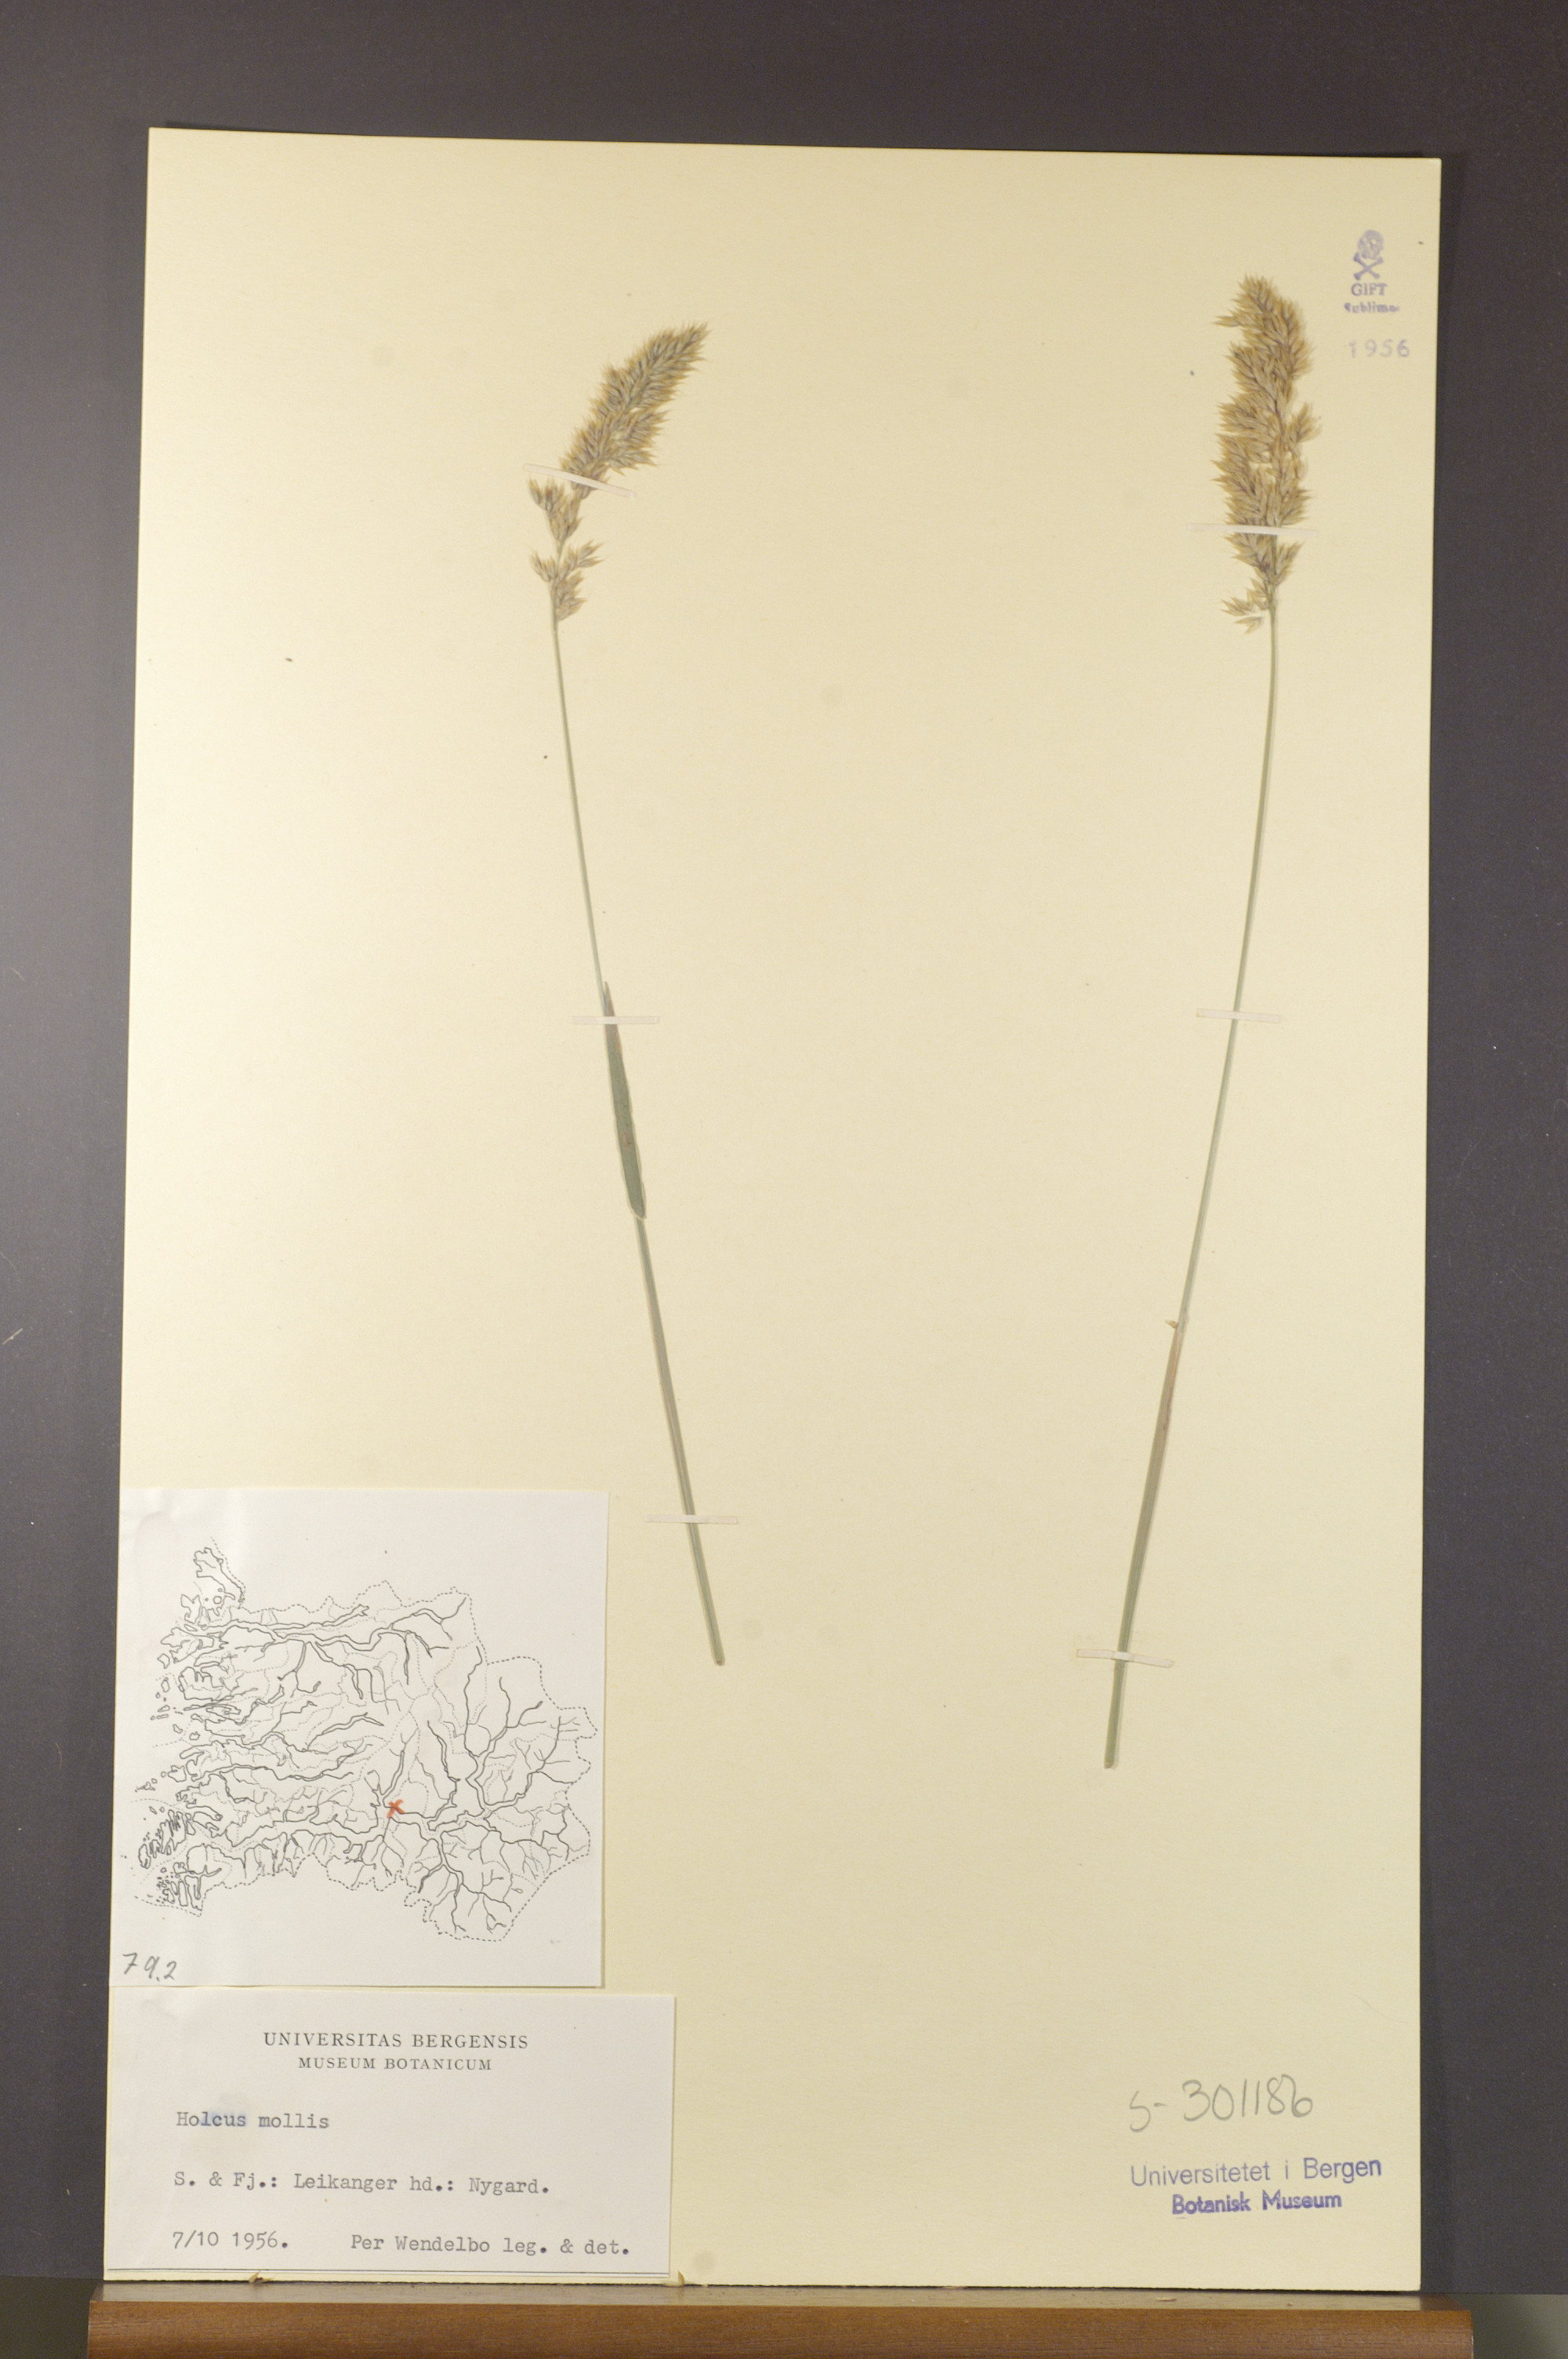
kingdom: Plantae
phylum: Tracheophyta
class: Liliopsida
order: Poales
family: Poaceae
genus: Holcus
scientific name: Holcus mollis
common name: Creeping velvetgrass
